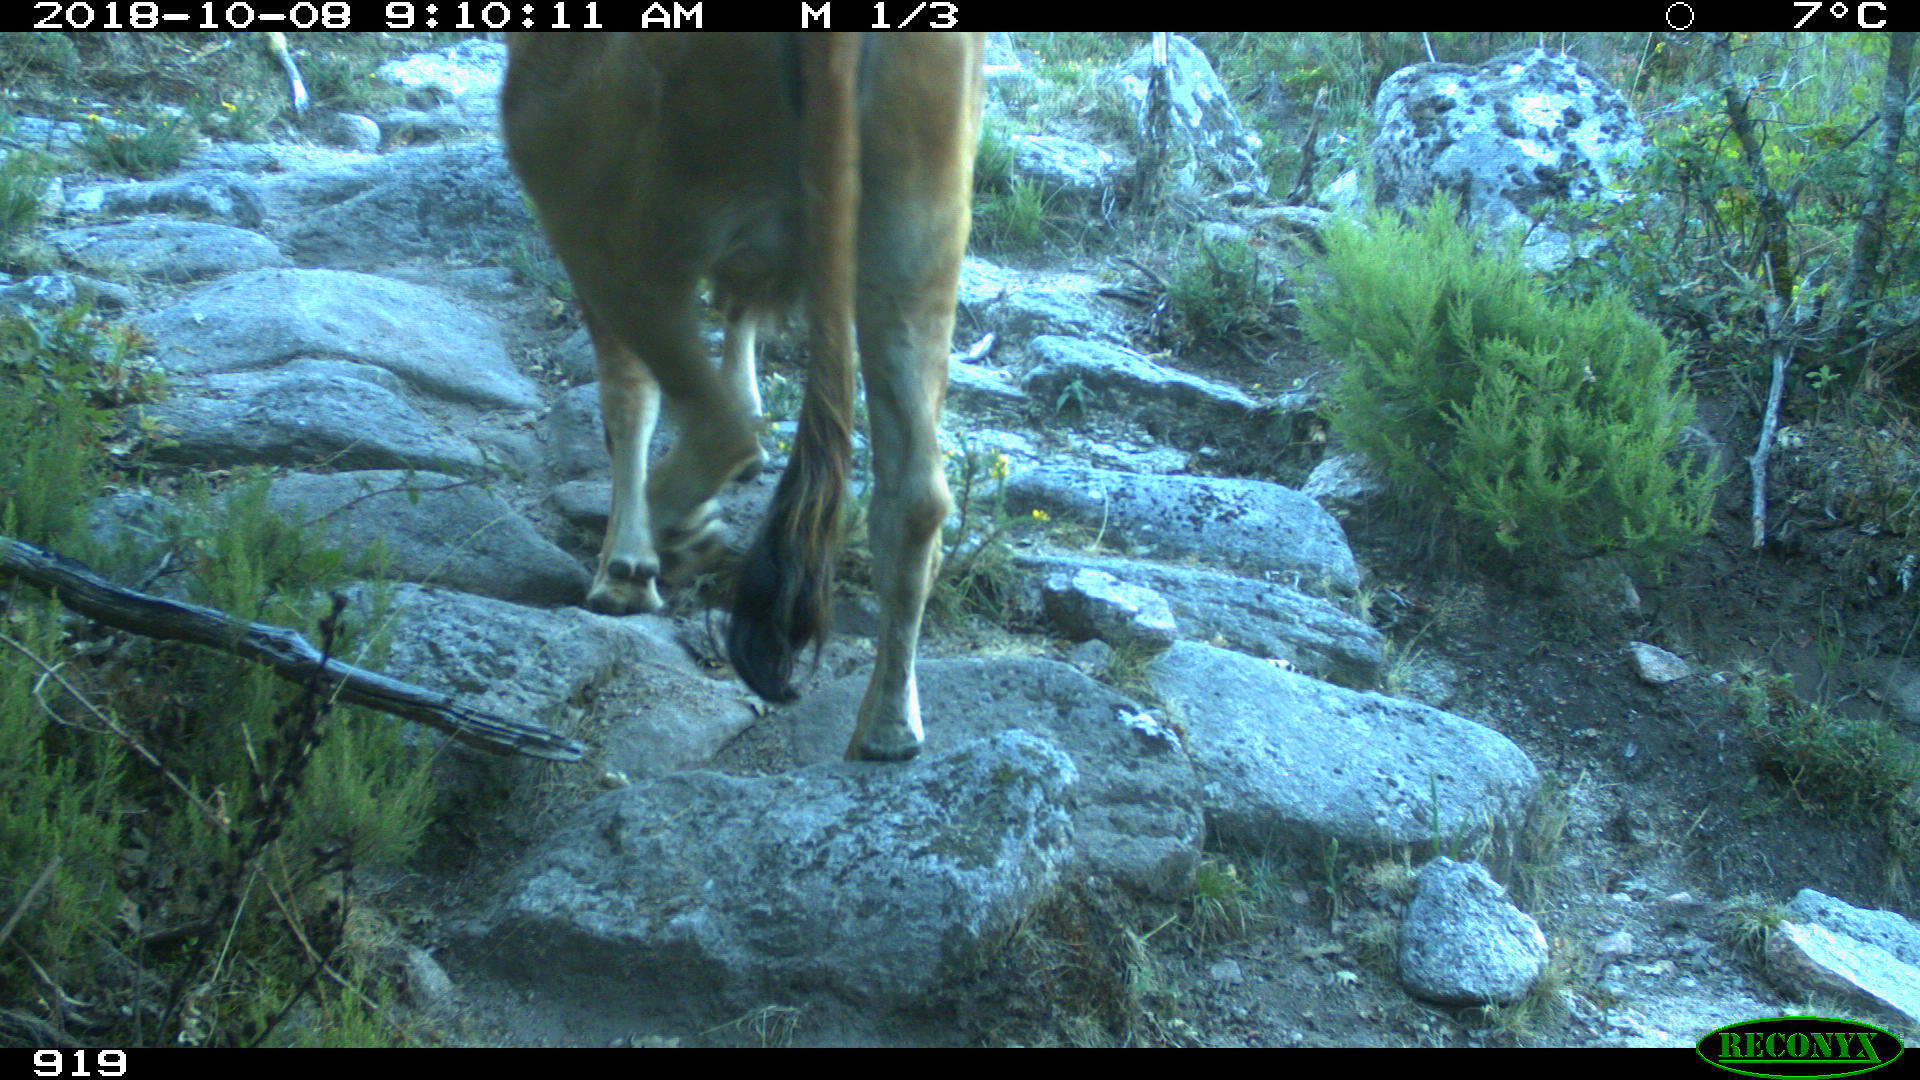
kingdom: Animalia
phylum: Chordata
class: Mammalia
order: Artiodactyla
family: Bovidae
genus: Bos
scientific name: Bos taurus
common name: Domesticated cattle
